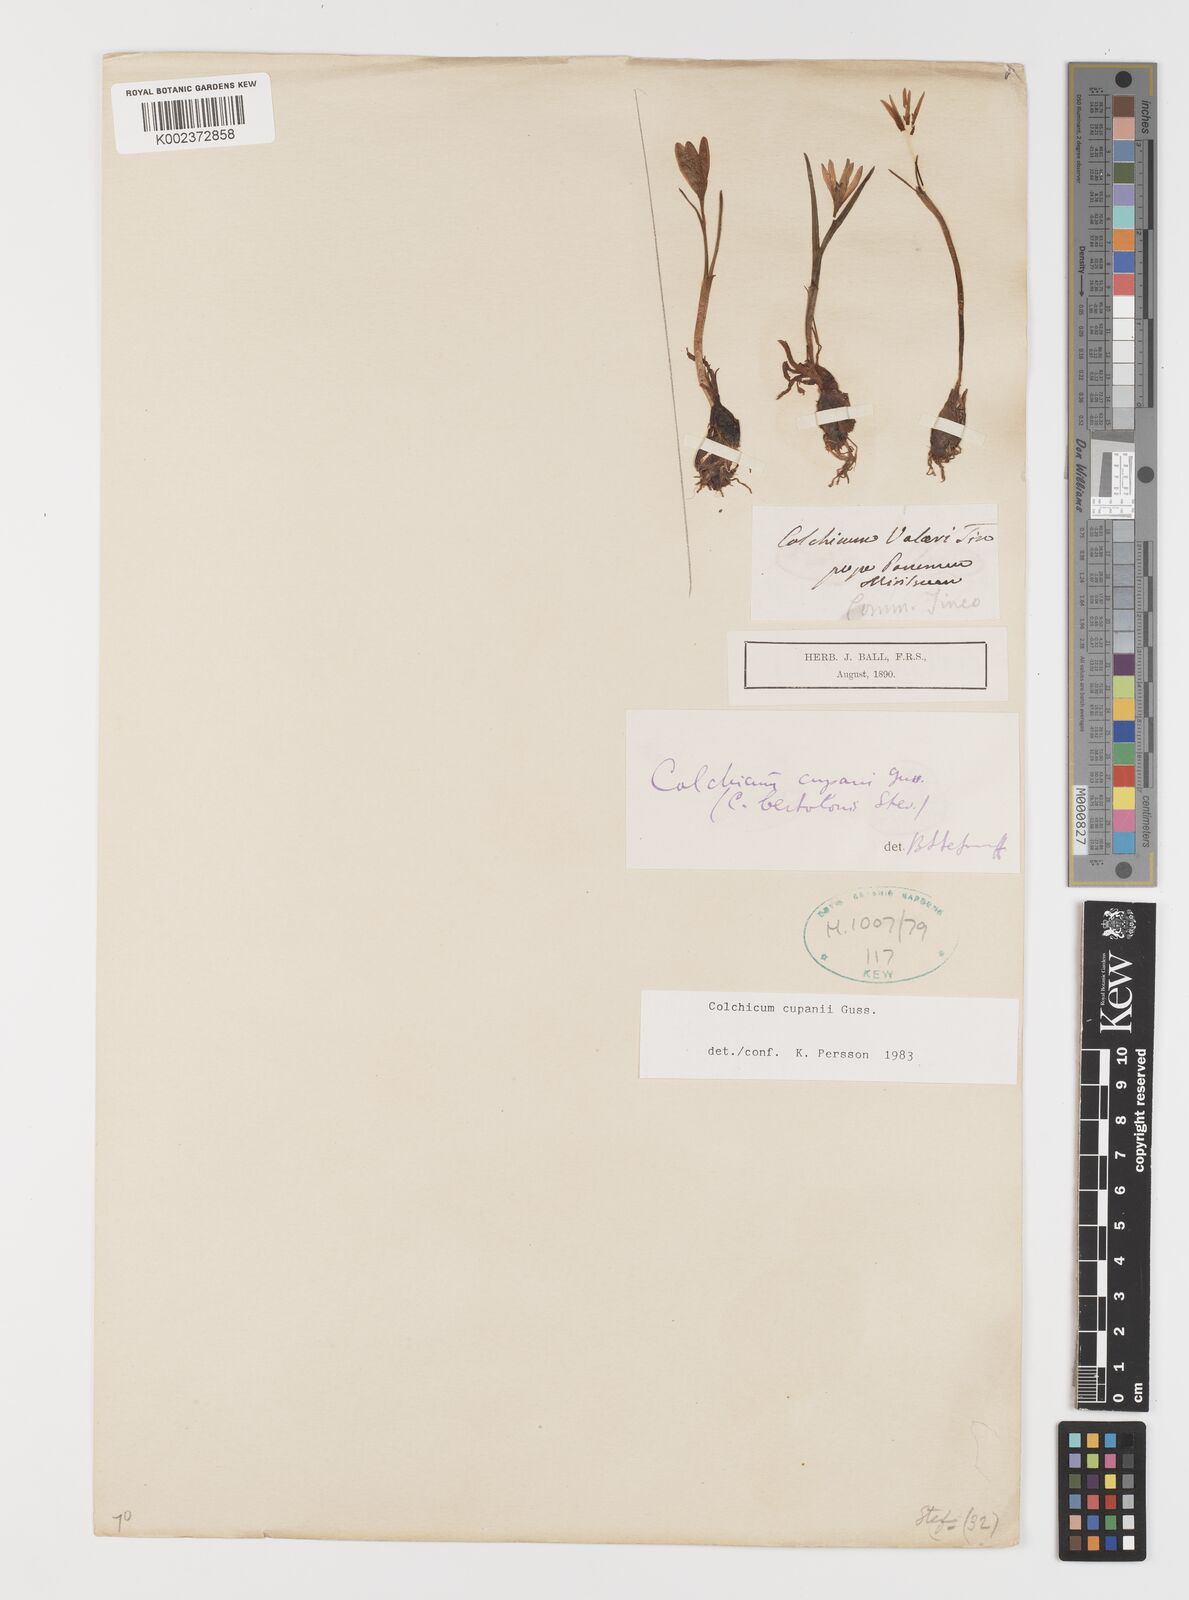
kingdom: Plantae
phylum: Tracheophyta
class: Liliopsida
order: Liliales
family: Colchicaceae
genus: Colchicum
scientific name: Colchicum cupanii
